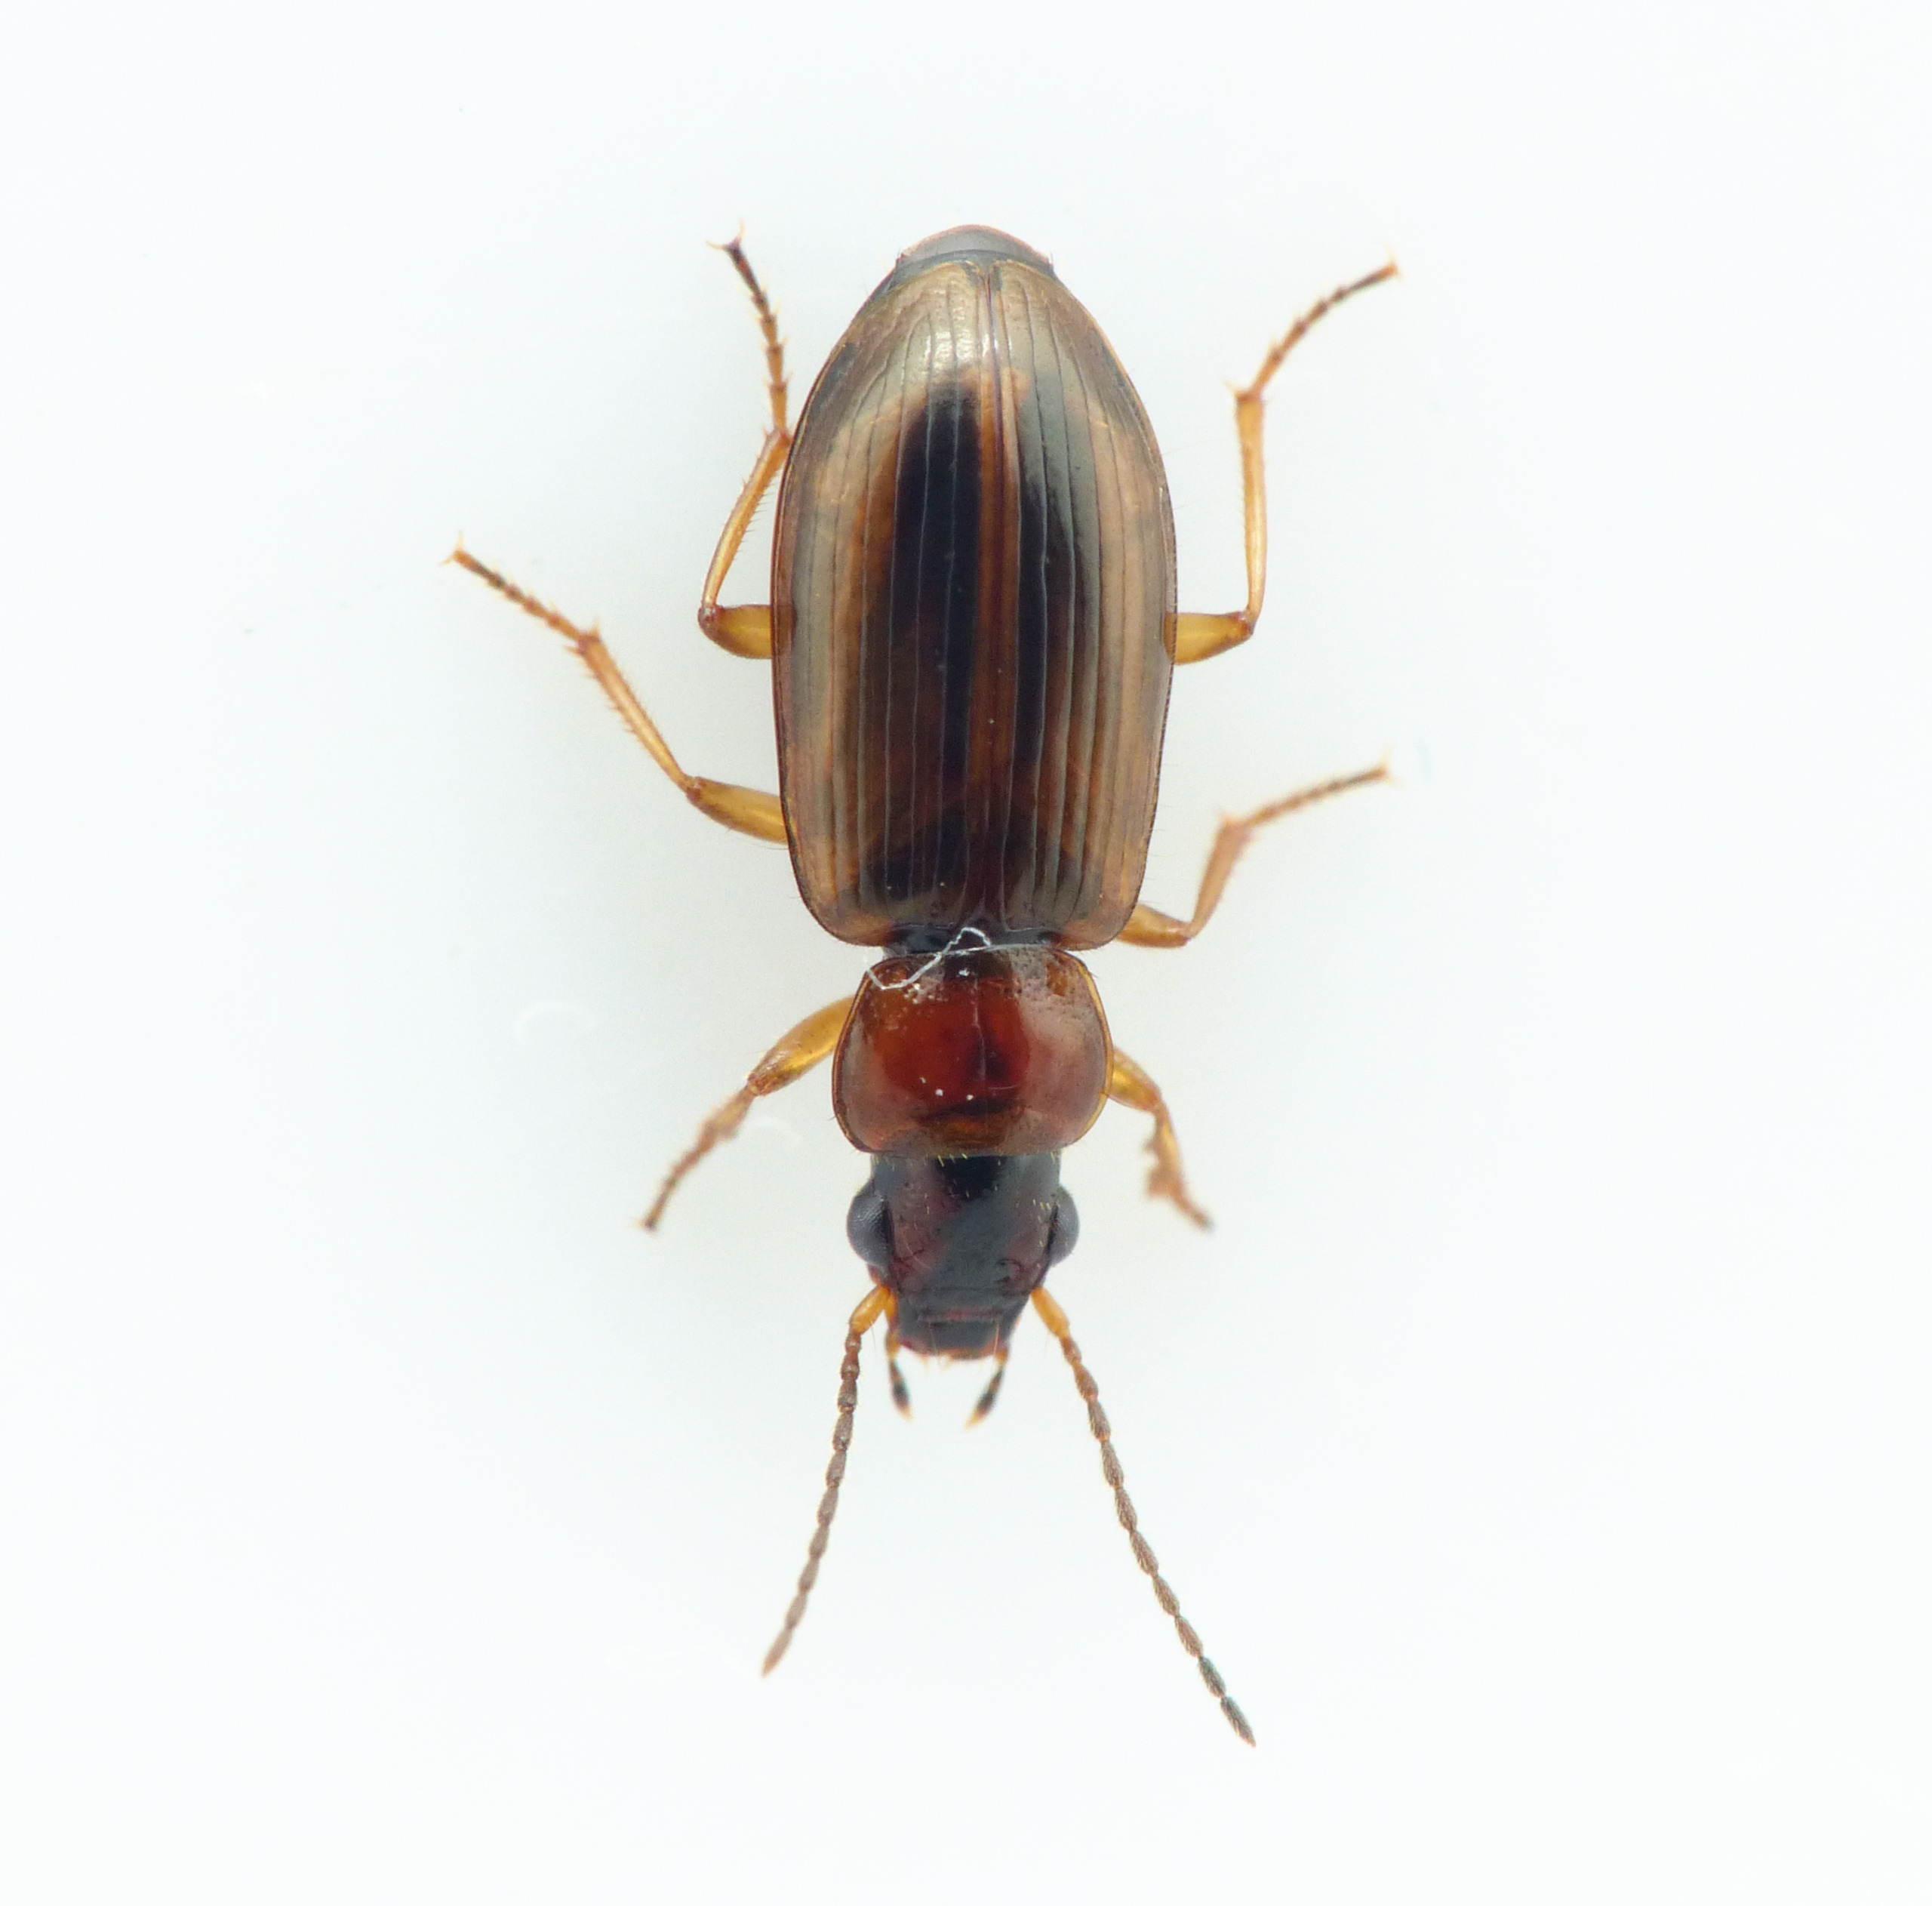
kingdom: Animalia
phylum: Arthropoda
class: Insecta
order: Coleoptera
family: Carabidae
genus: Dicheirotrichus
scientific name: Dicheirotrichus placidus
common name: Kærvinterløber
